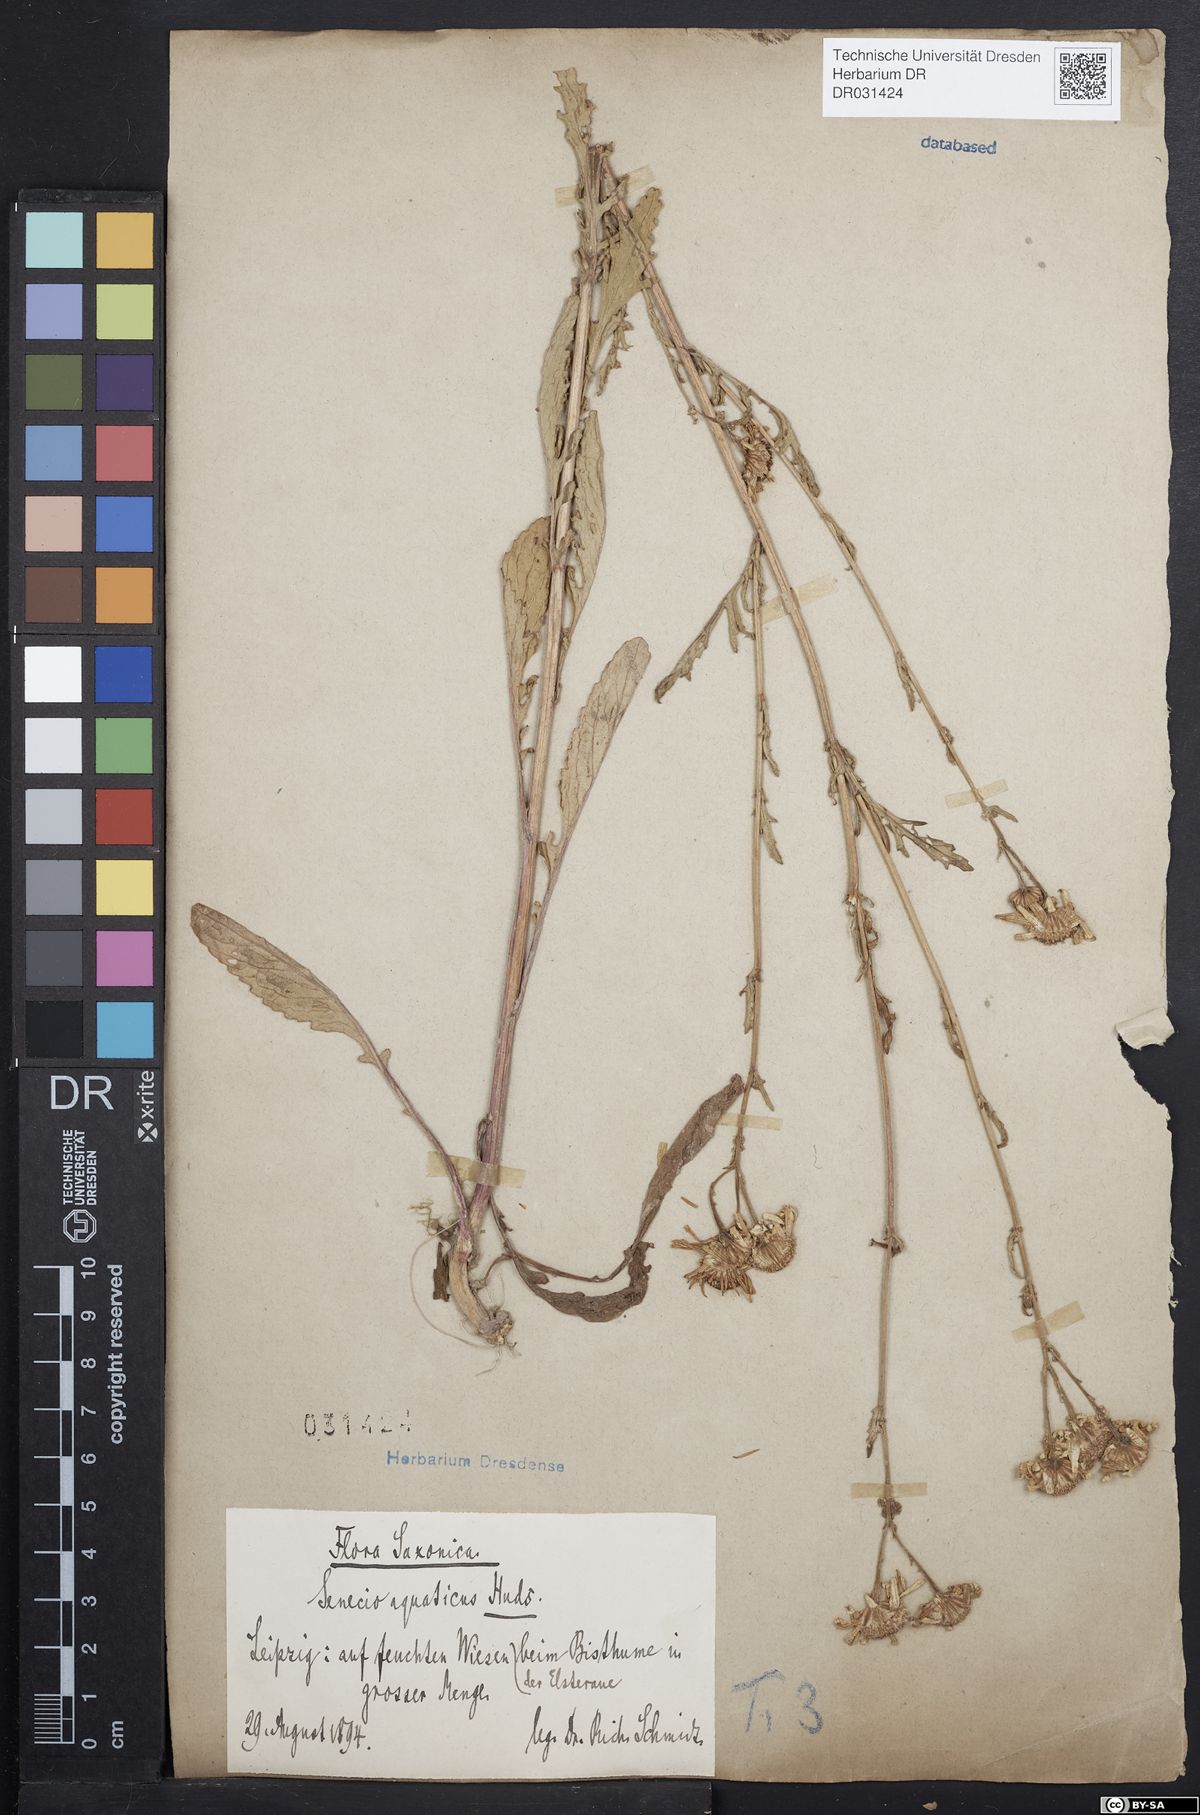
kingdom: Plantae
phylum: Tracheophyta
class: Magnoliopsida
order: Asterales
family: Asteraceae
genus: Jacobaea
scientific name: Jacobaea aquatica
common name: Water ragwort
